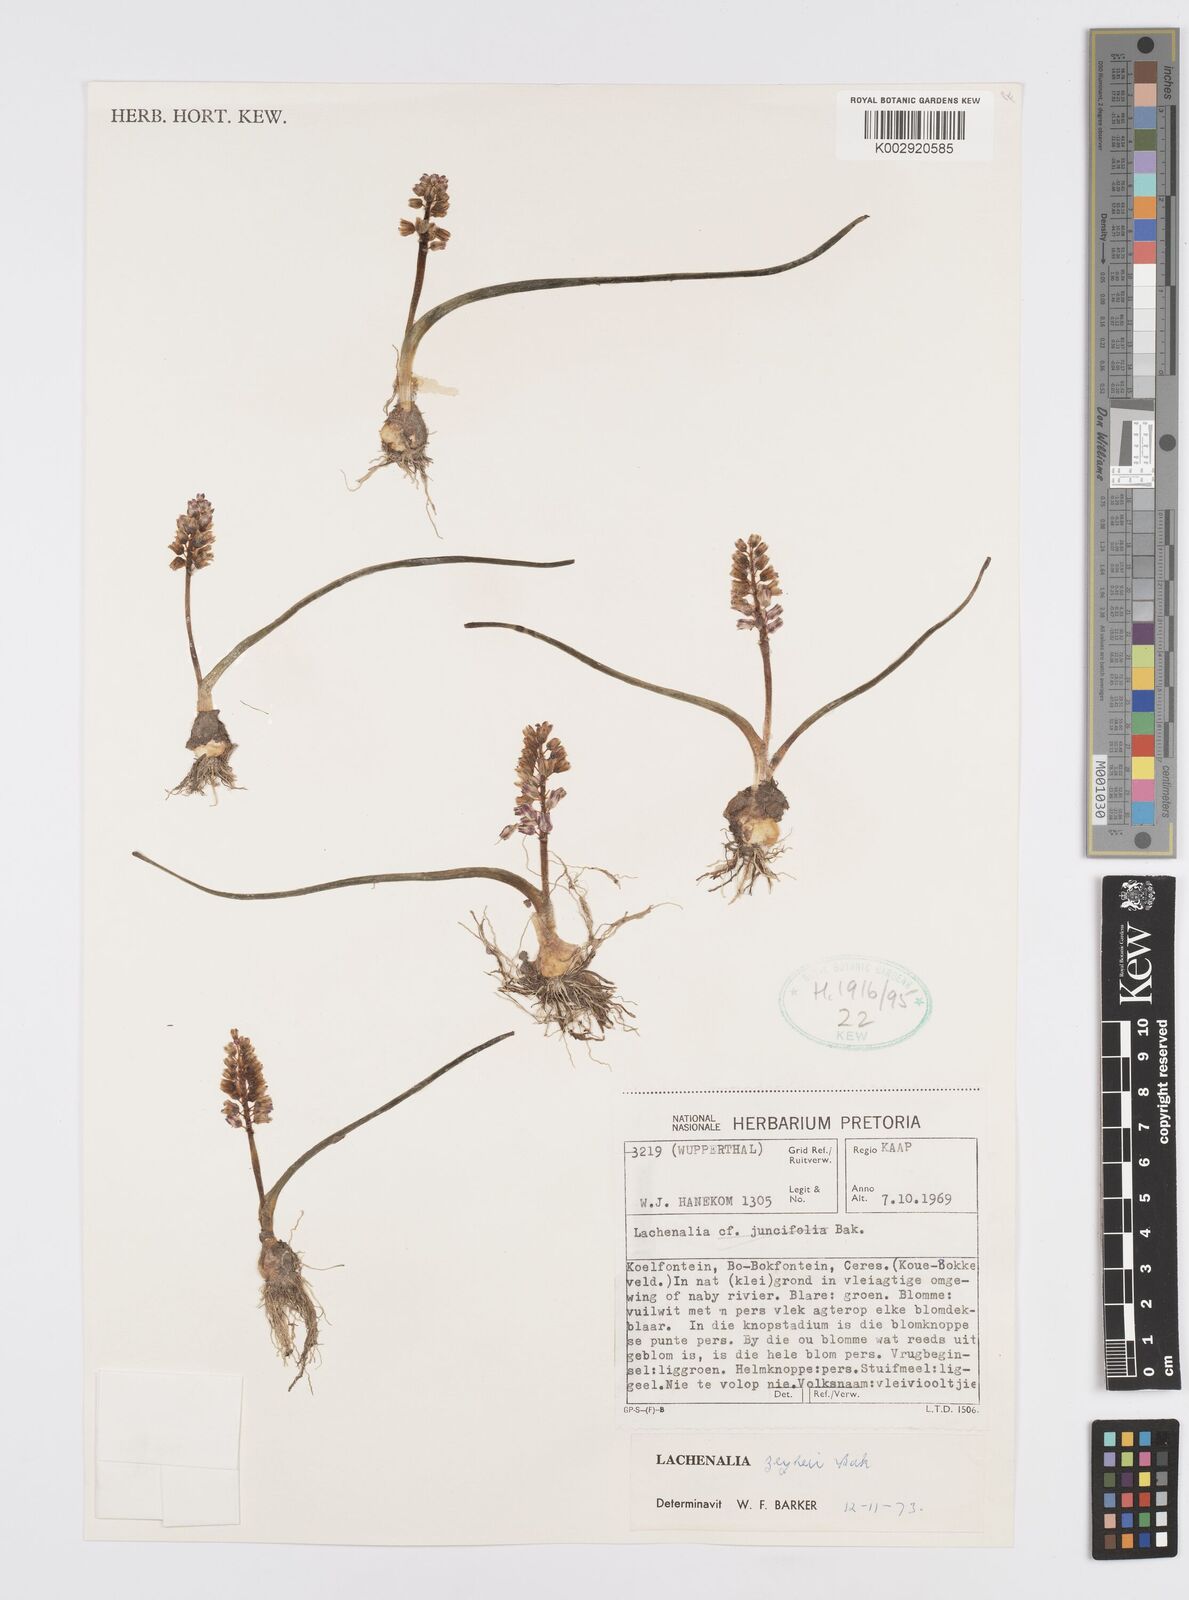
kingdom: Plantae
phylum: Tracheophyta
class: Liliopsida
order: Asparagales
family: Asparagaceae
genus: Lachenalia
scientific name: Lachenalia zeyheri
